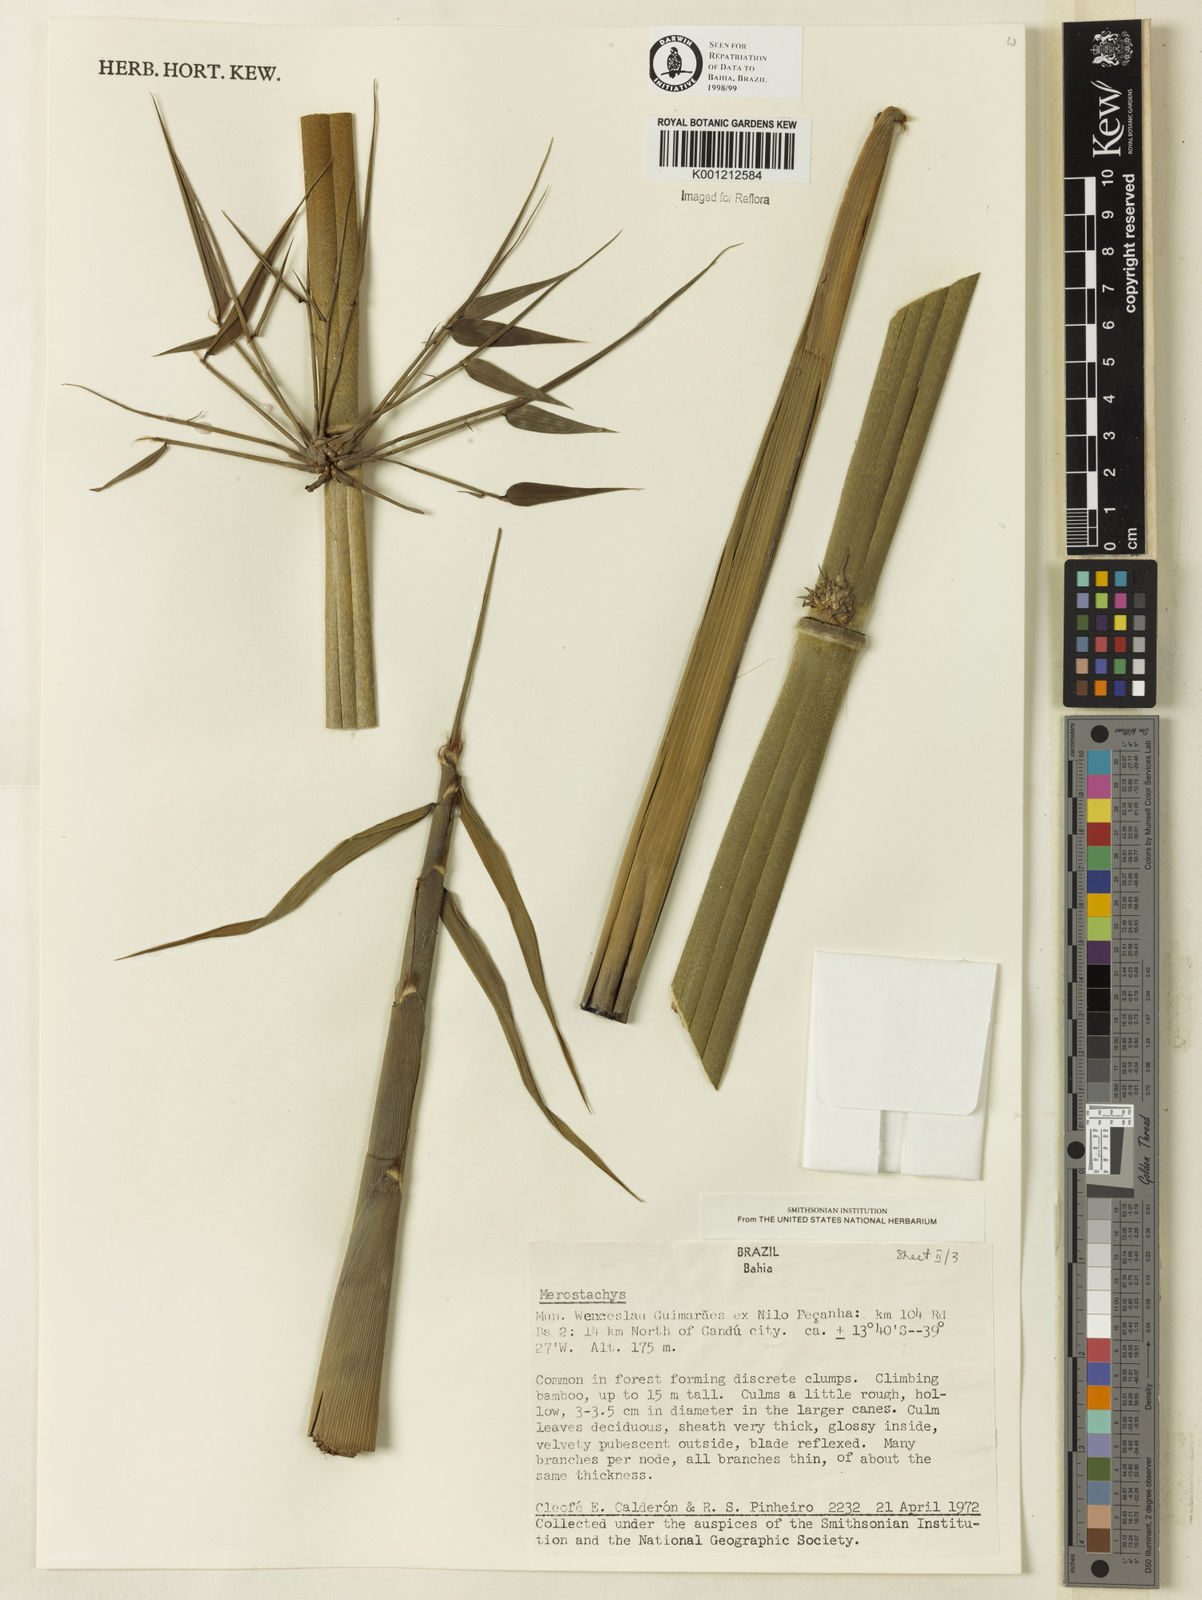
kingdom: Plantae
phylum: Tracheophyta
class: Liliopsida
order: Poales
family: Poaceae
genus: Merostachys
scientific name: Merostachys
